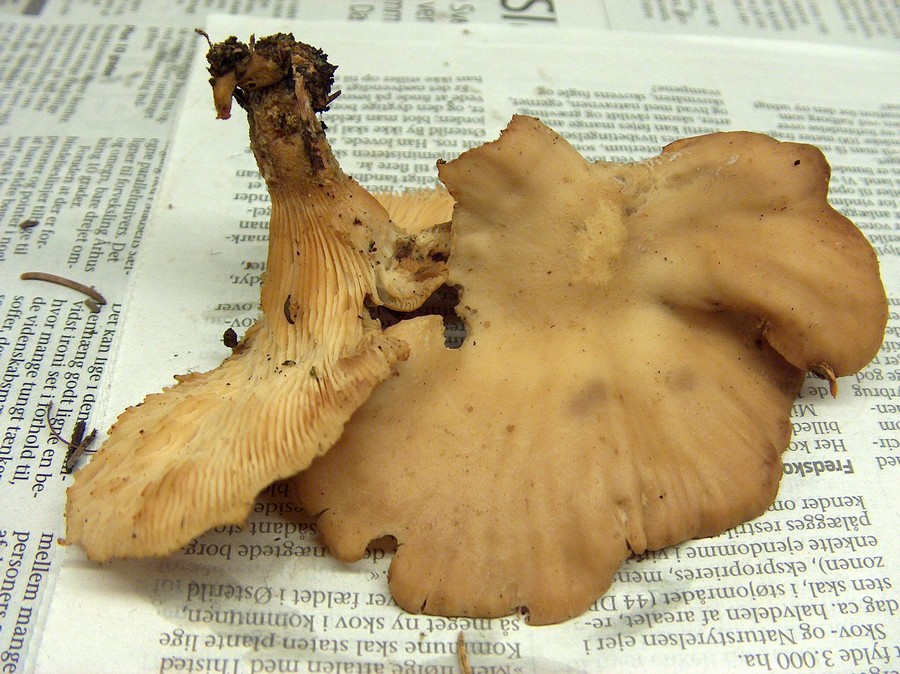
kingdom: Fungi
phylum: Basidiomycota
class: Agaricomycetes
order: Polyporales
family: Panaceae
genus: Panus
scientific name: Panus conchatus
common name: filtstokket læderhat
